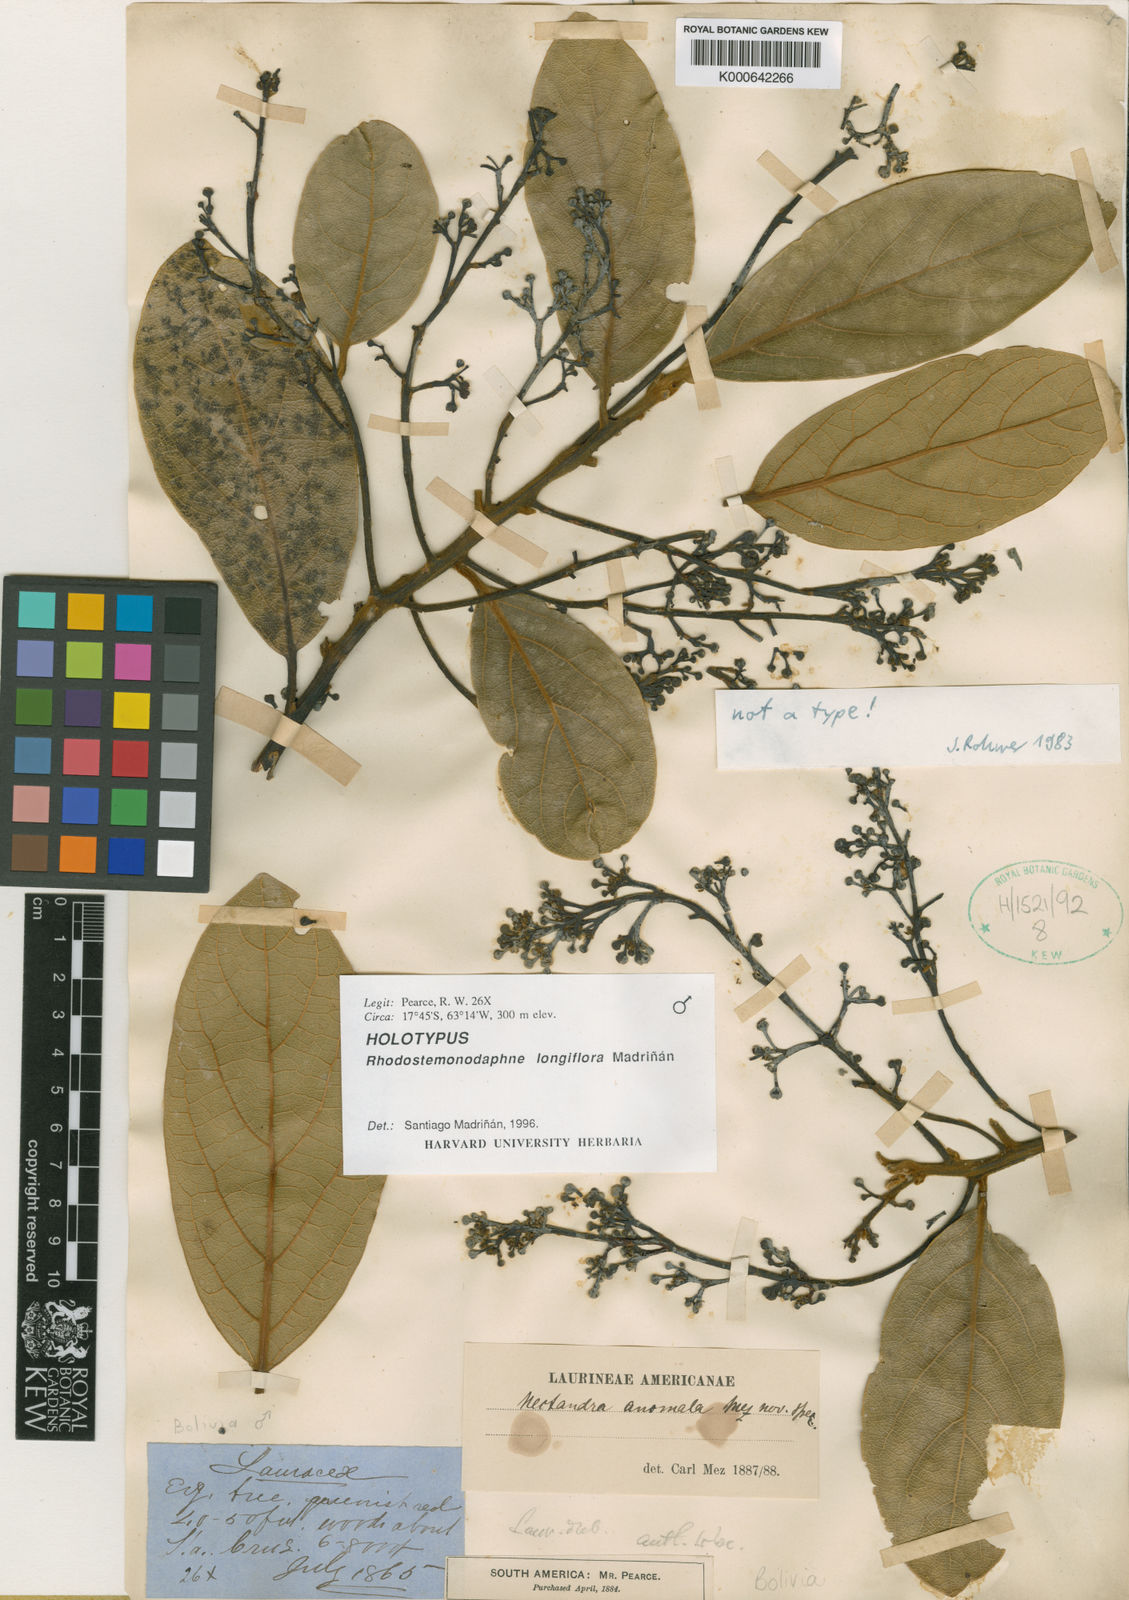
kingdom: Plantae
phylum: Tracheophyta
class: Magnoliopsida
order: Laurales
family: Lauraceae
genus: Rhodostemonodaphne
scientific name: Rhodostemonodaphne
